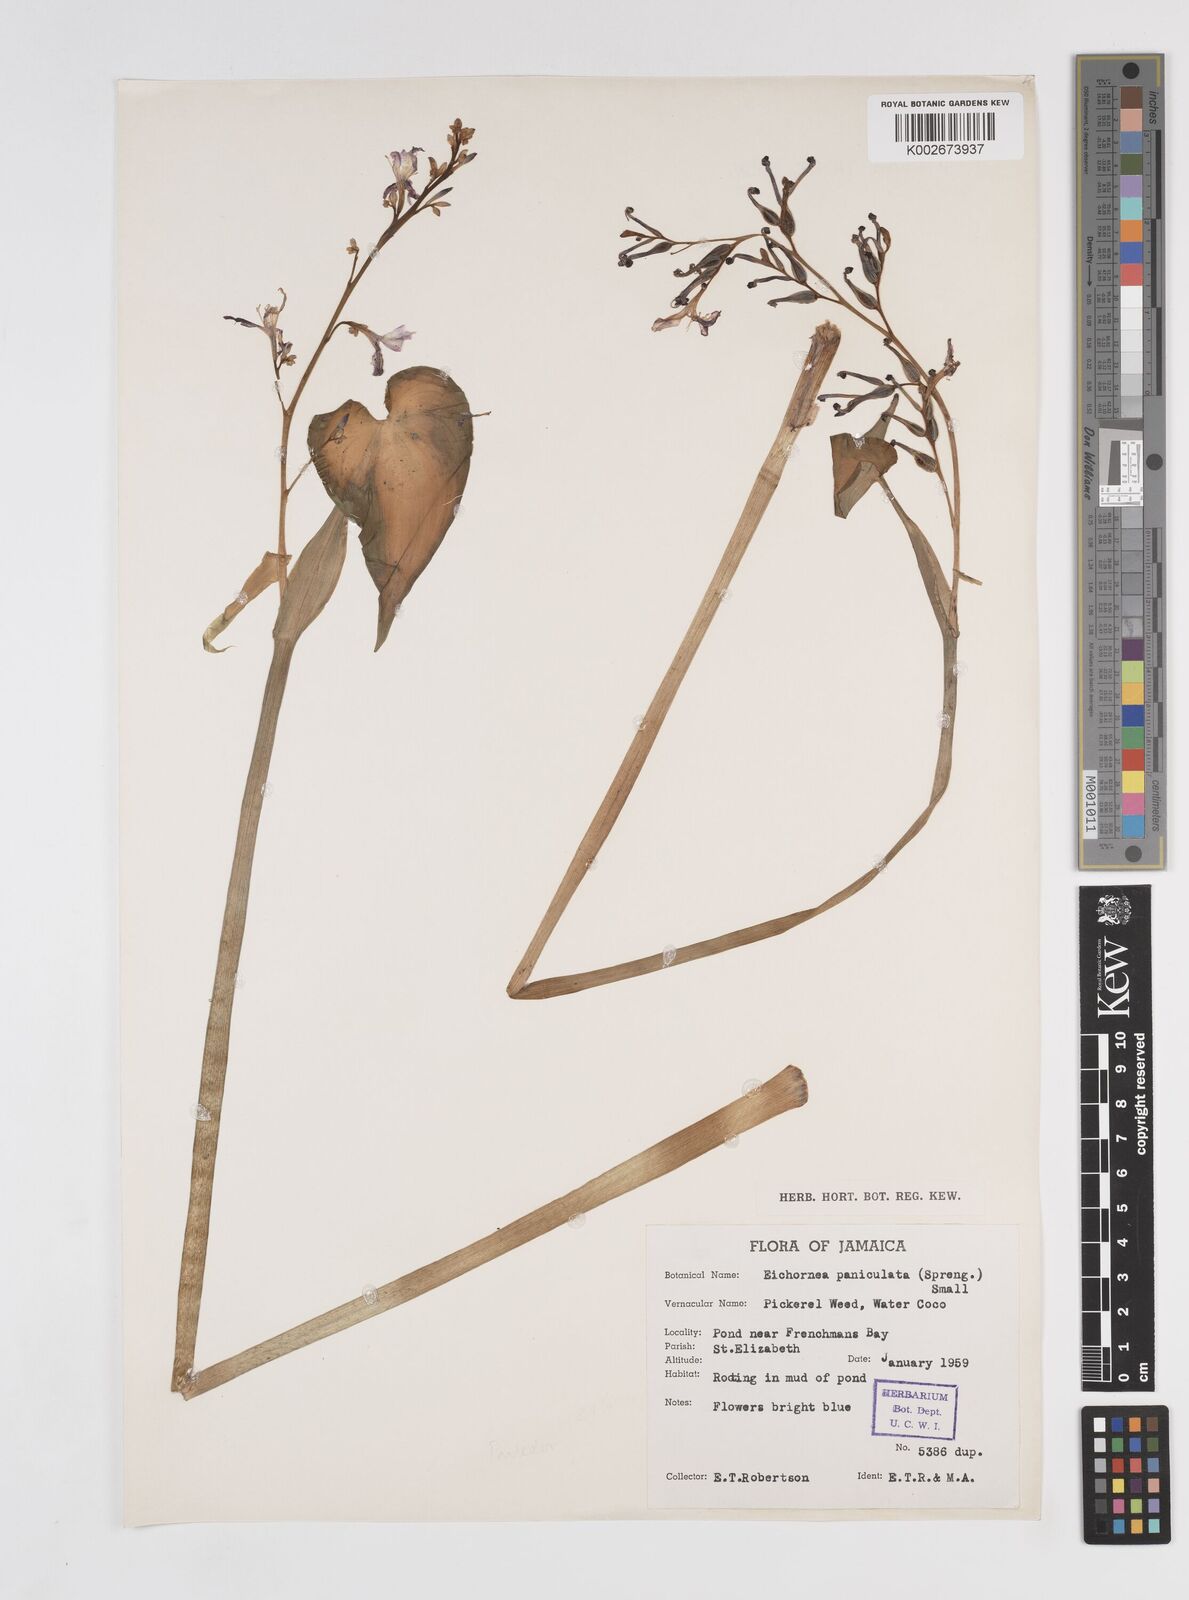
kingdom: Plantae
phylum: Tracheophyta
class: Liliopsida
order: Commelinales
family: Pontederiaceae
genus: Pontederia
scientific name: Pontederia paniculata
